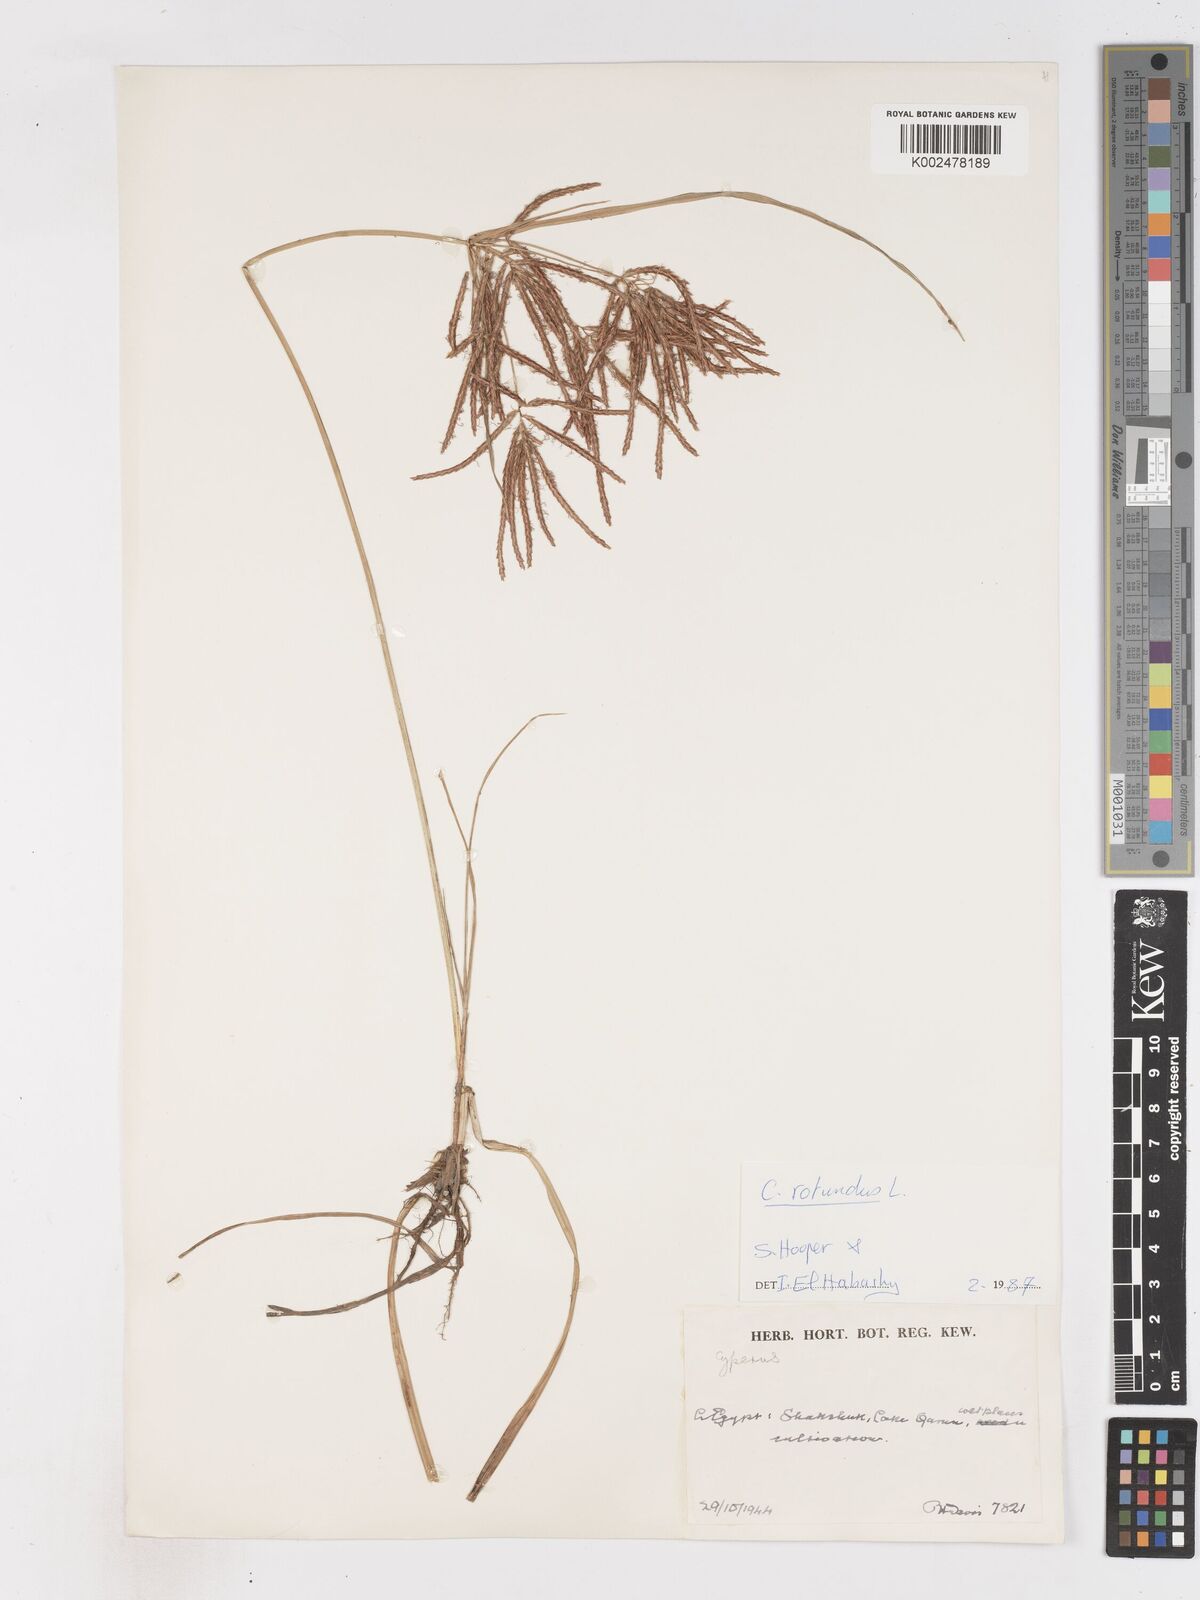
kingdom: Plantae
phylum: Tracheophyta
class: Liliopsida
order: Poales
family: Cyperaceae
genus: Cyperus
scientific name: Cyperus rotundus
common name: Nutgrass
